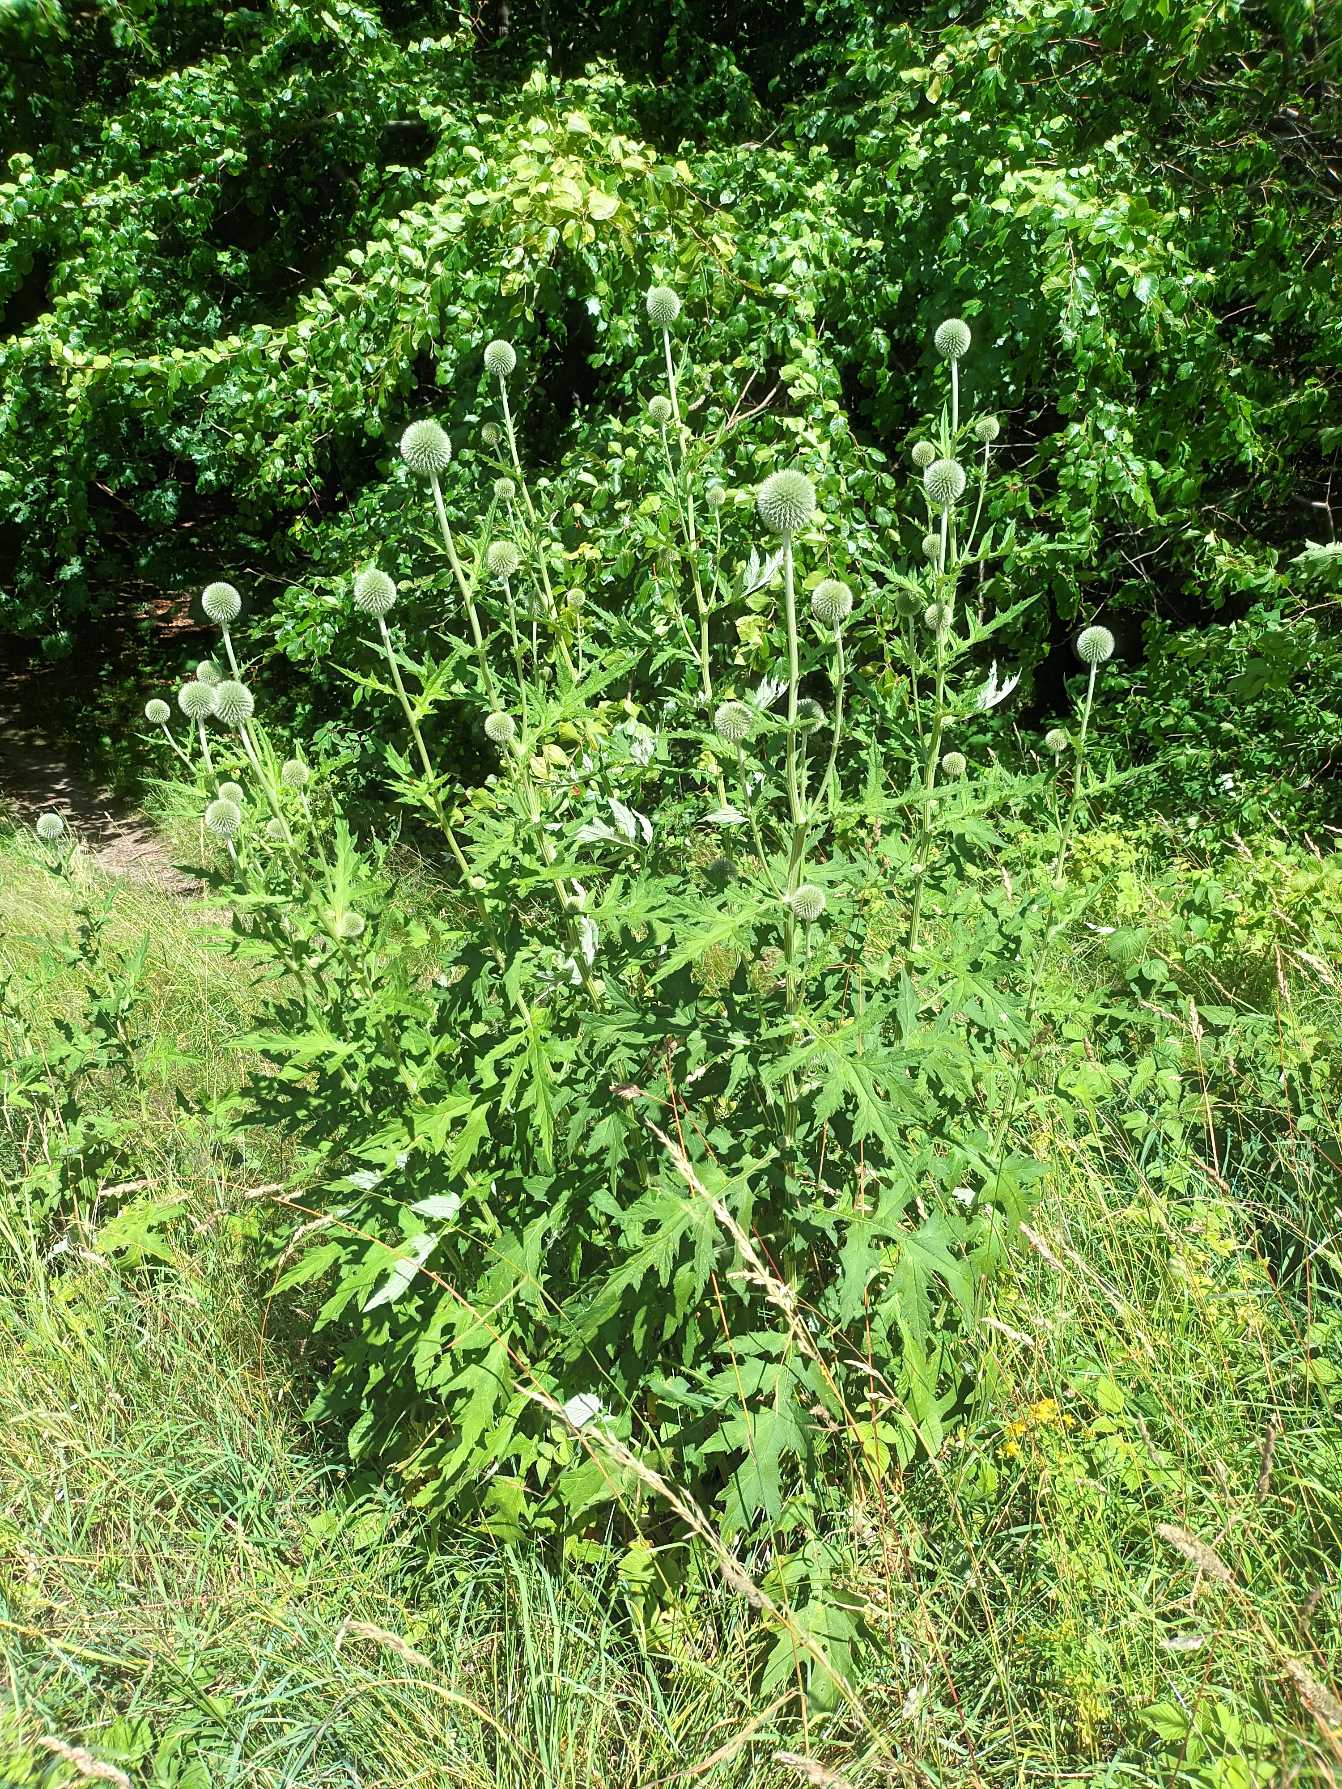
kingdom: Plantae
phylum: Tracheophyta
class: Magnoliopsida
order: Asterales
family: Asteraceae
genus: Echinops
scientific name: Echinops exaltatus
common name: Høj tidselkugle
